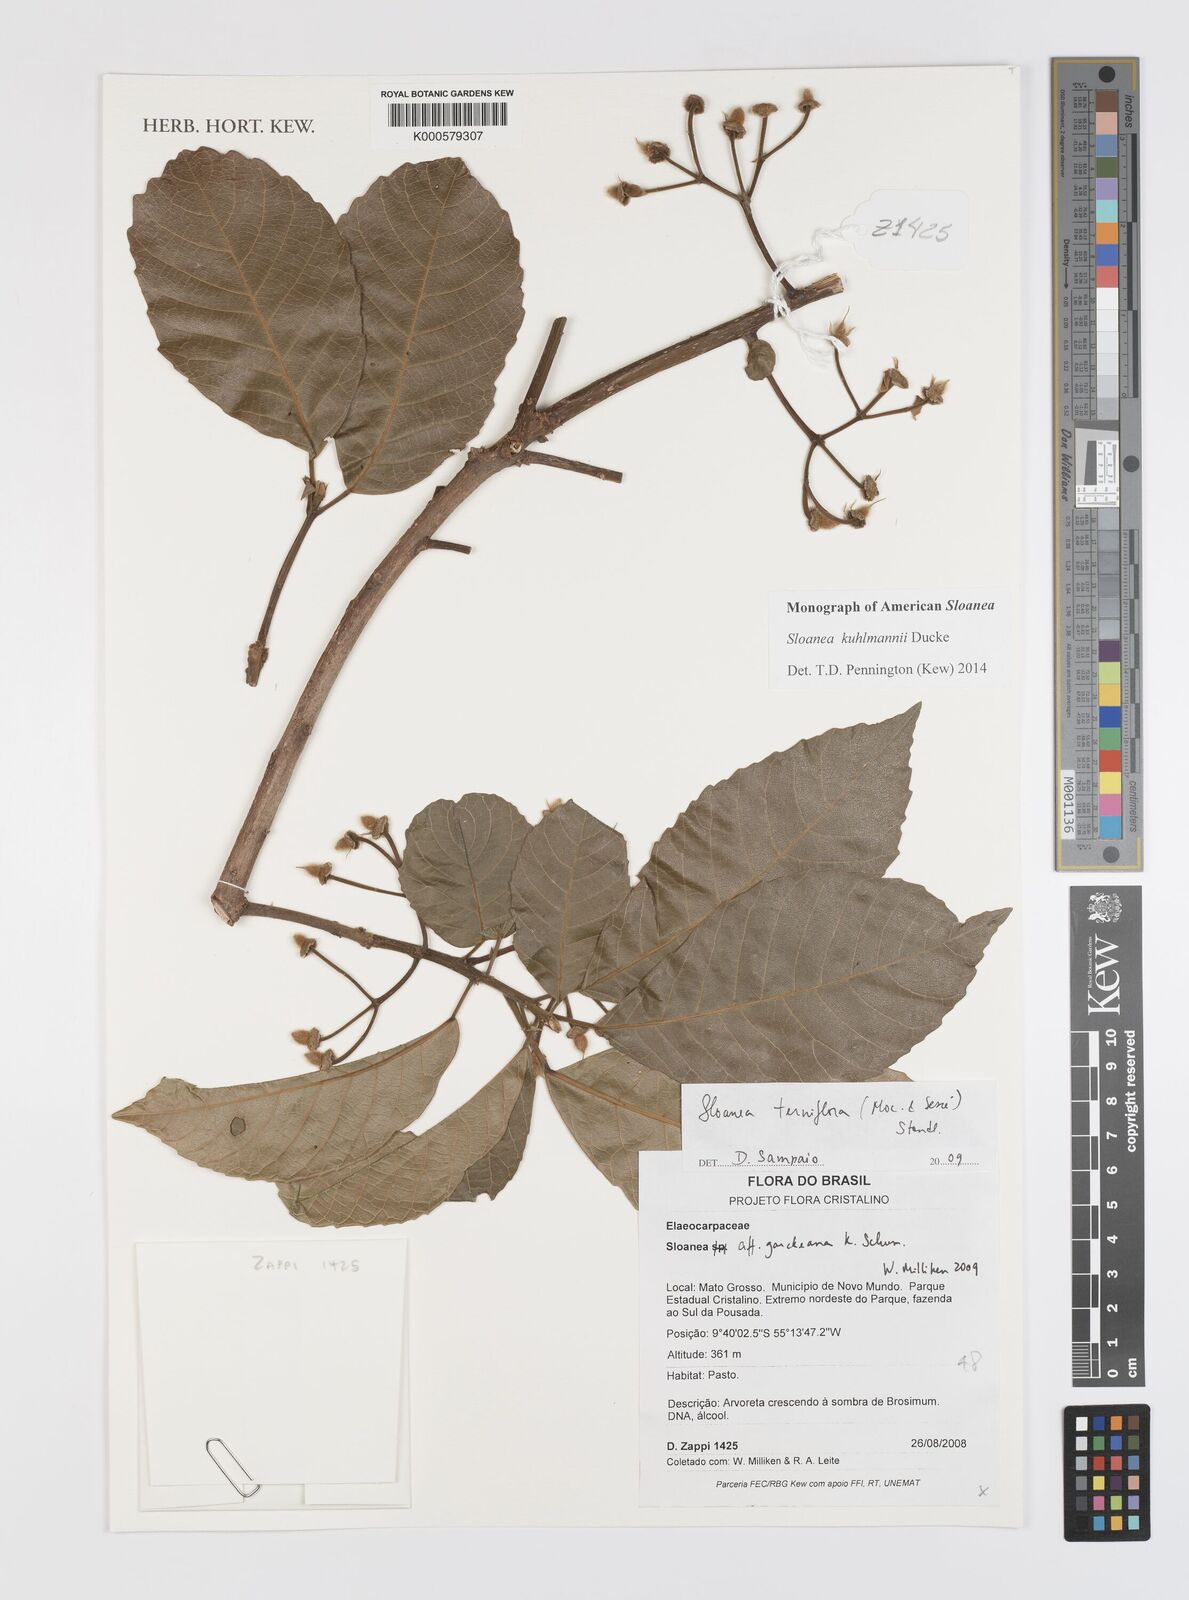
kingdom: Plantae
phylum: Tracheophyta
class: Magnoliopsida
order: Oxalidales
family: Elaeocarpaceae
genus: Sloanea
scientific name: Sloanea
